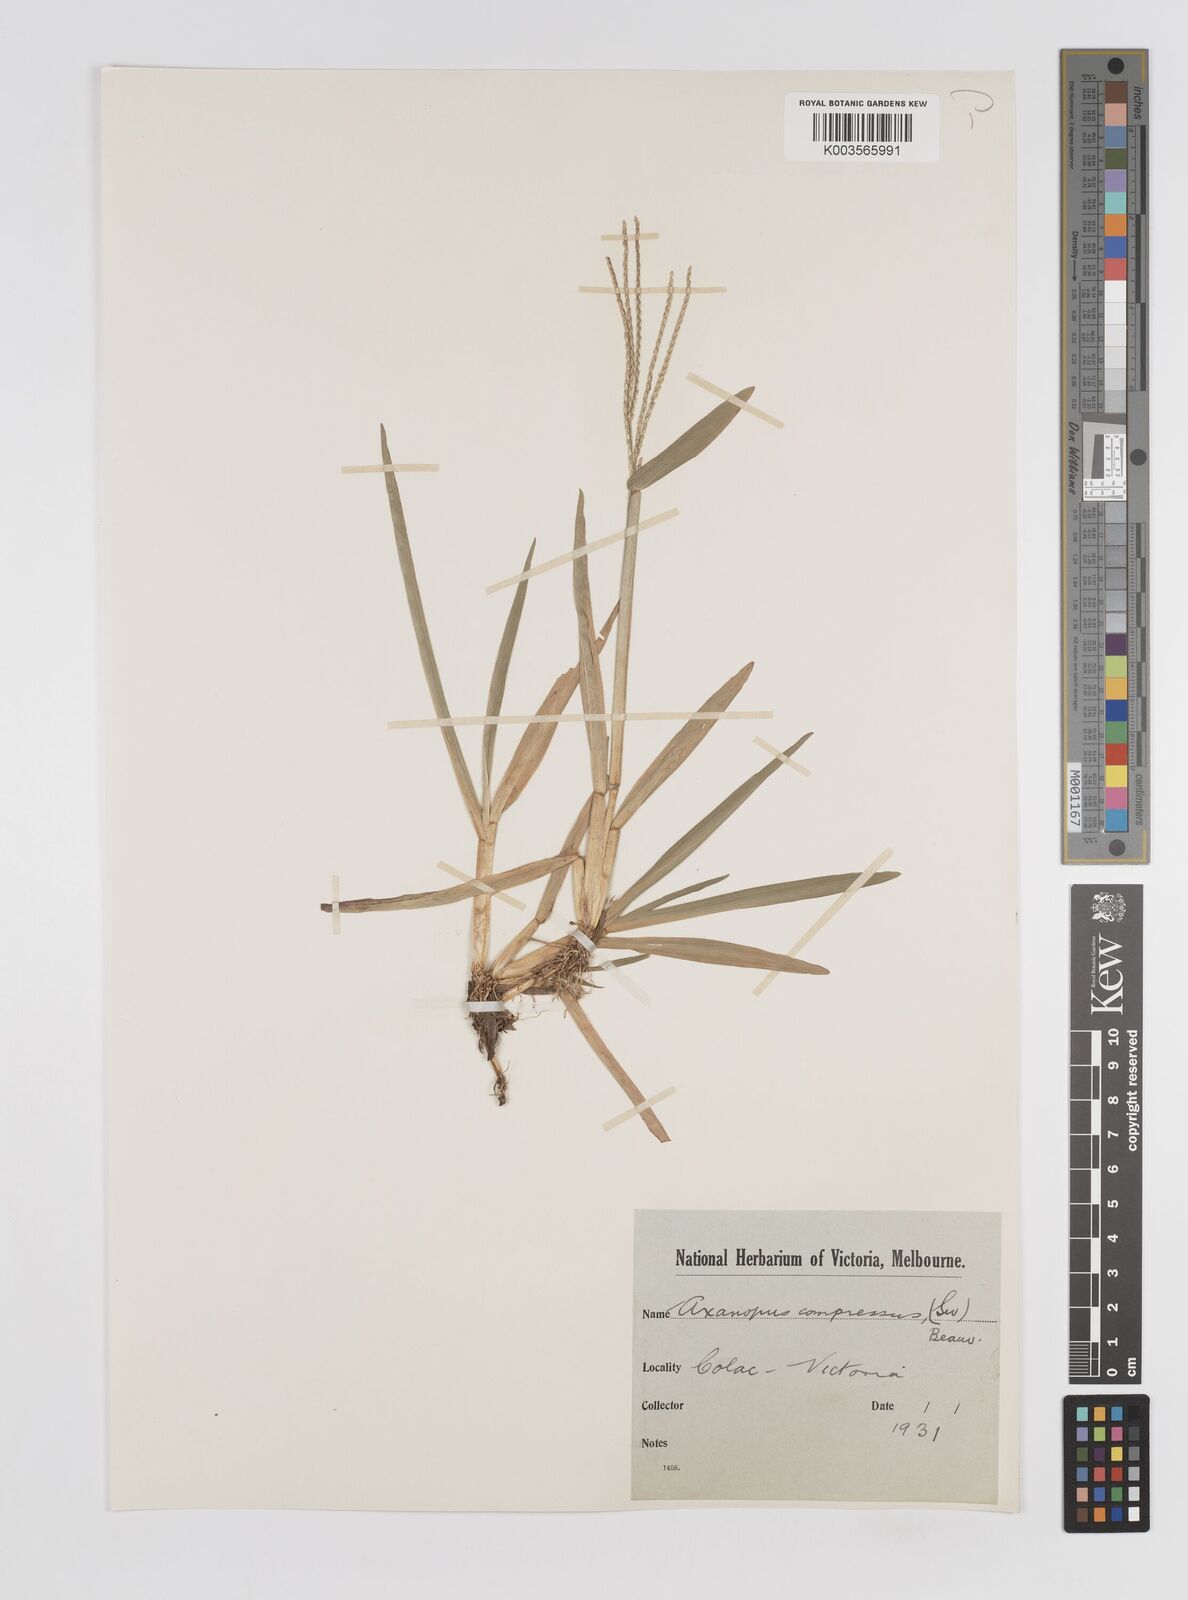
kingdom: Plantae
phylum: Tracheophyta
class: Liliopsida
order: Poales
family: Poaceae
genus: Axonopus
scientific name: Axonopus compressus
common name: American carpet grass
